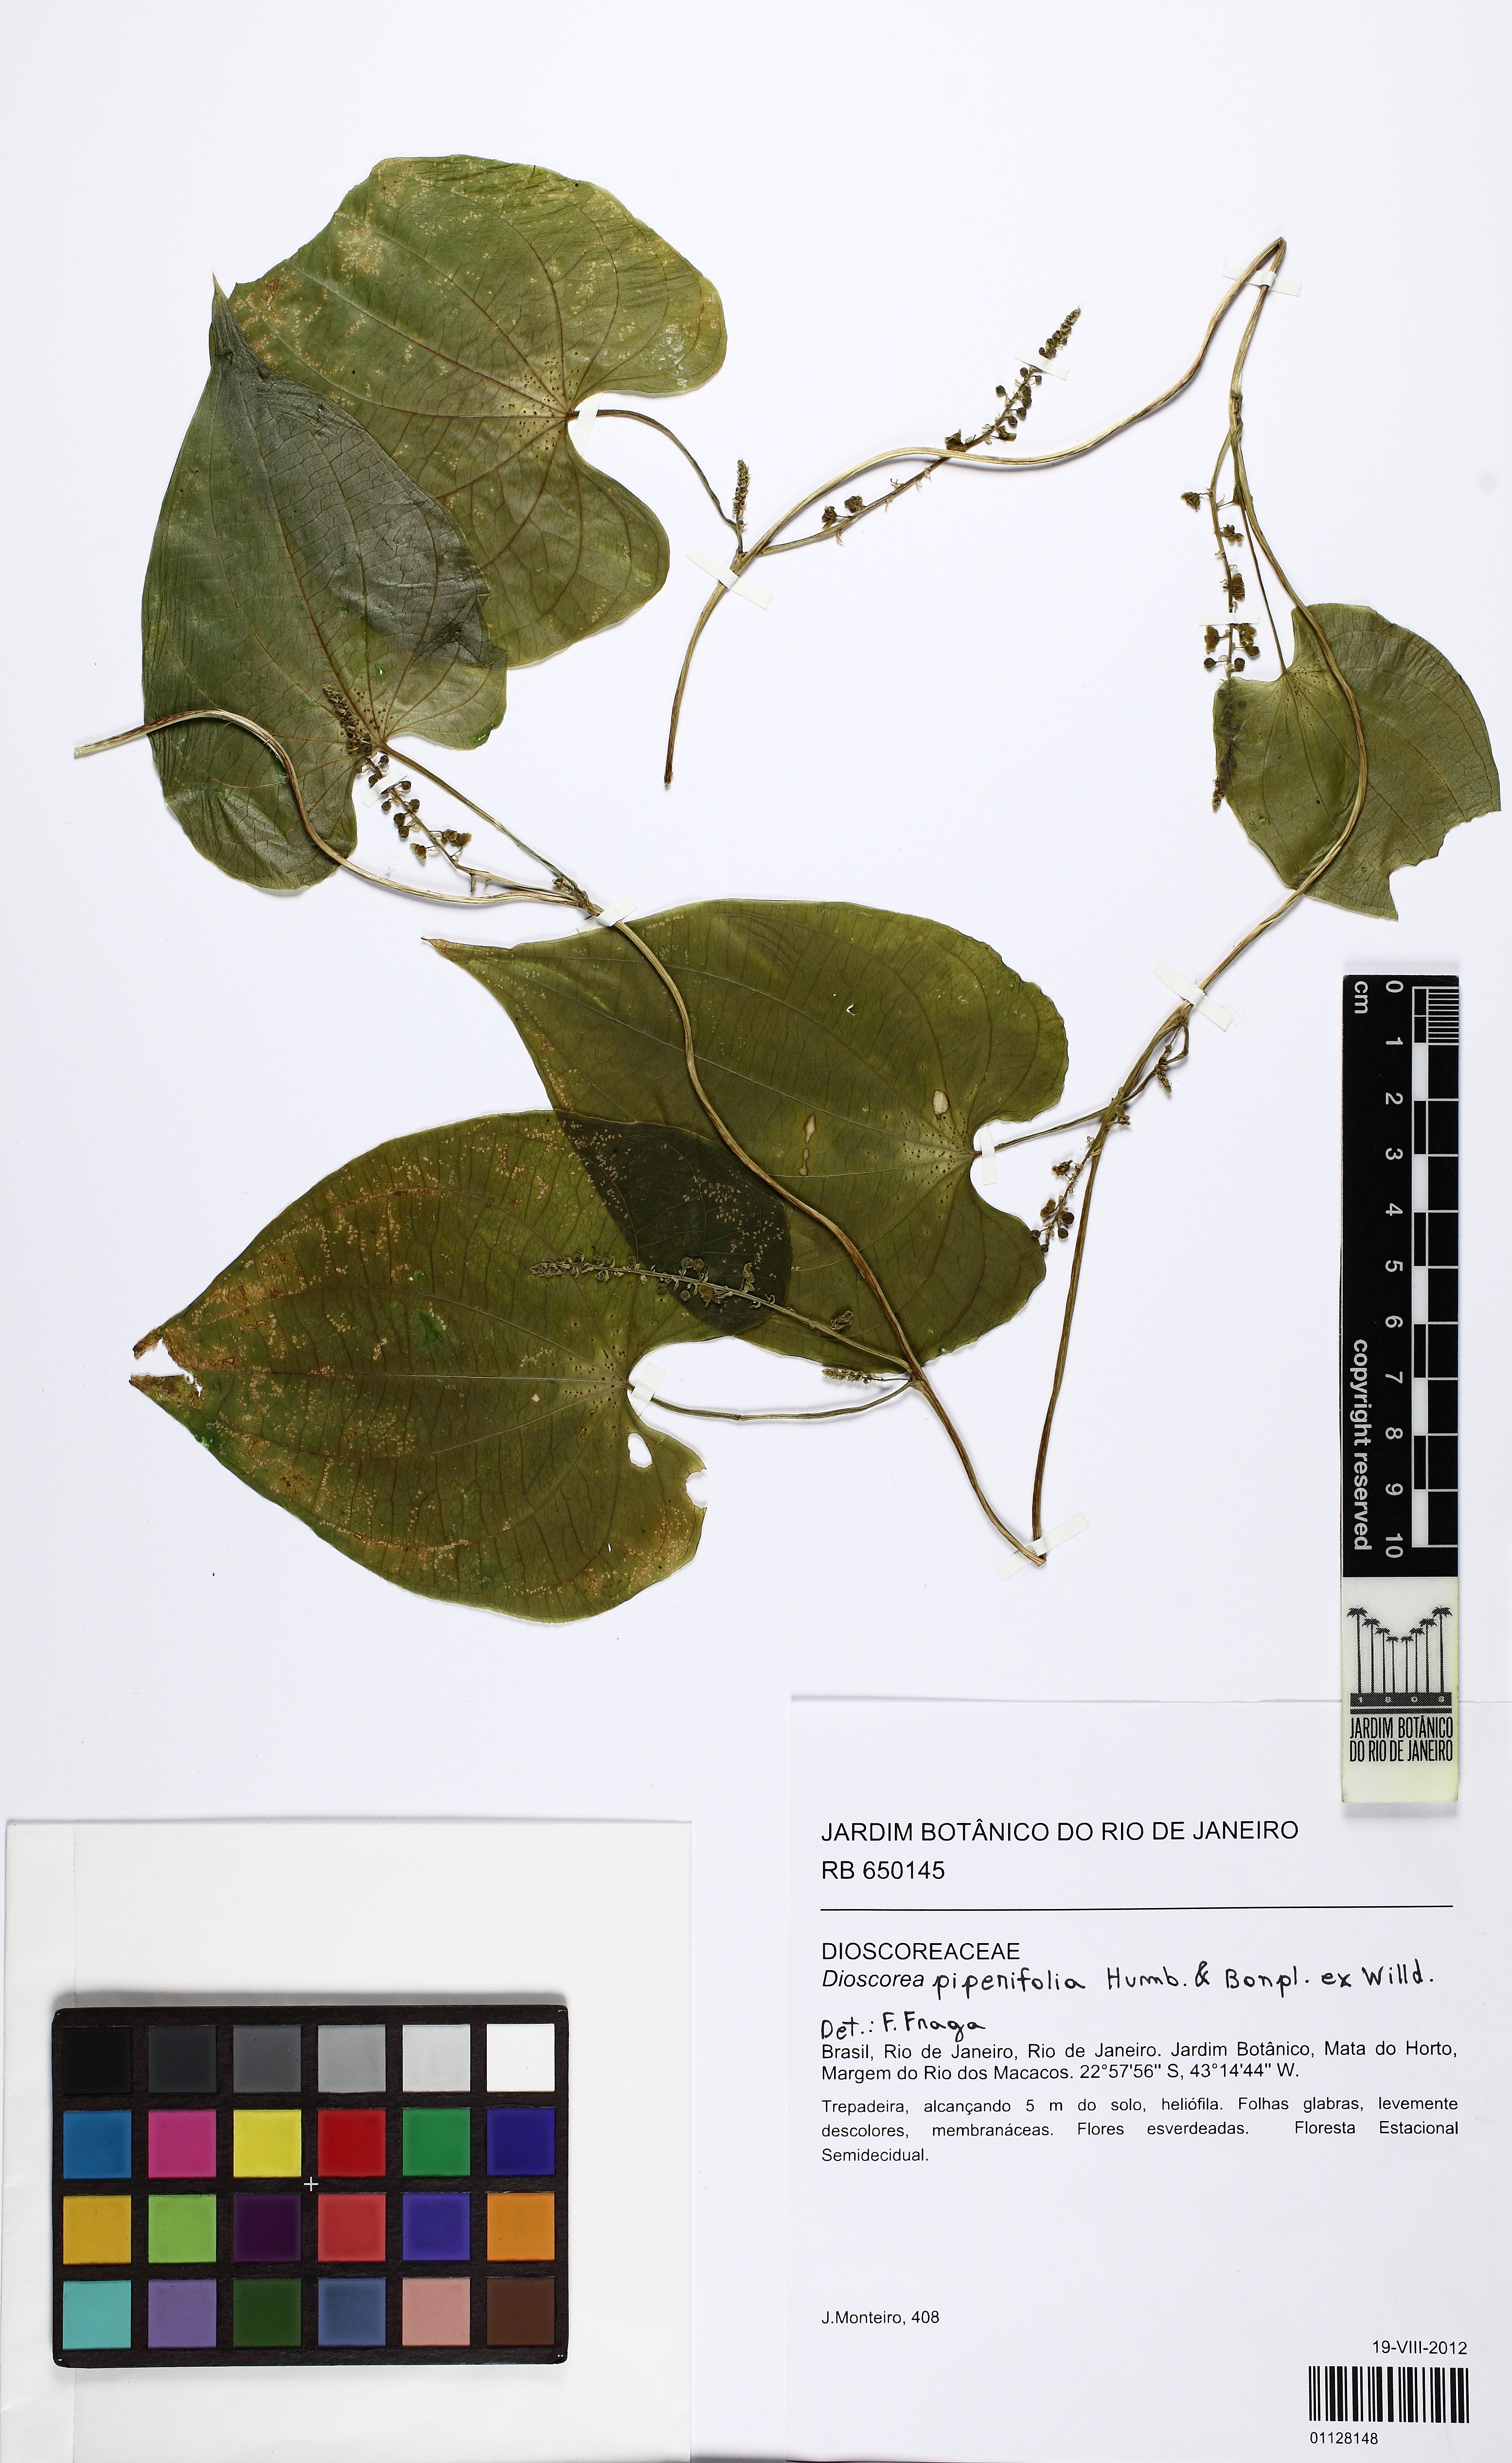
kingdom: Plantae
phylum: Tracheophyta
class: Liliopsida
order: Dioscoreales
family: Dioscoreaceae
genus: Dioscorea
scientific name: Dioscorea piperifolia
